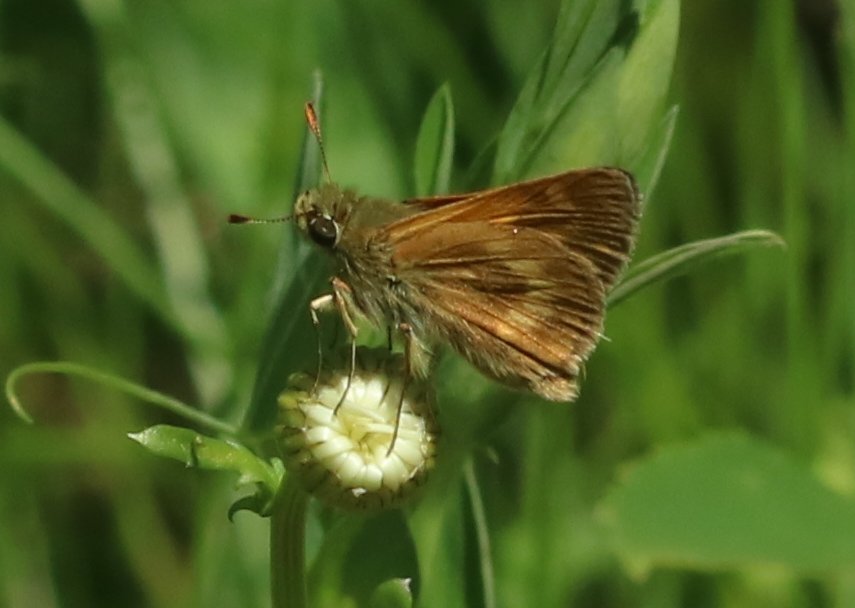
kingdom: Animalia
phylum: Arthropoda
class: Insecta
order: Lepidoptera
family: Hesperiidae
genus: Polites
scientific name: Polites
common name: Long Dash Skipper
